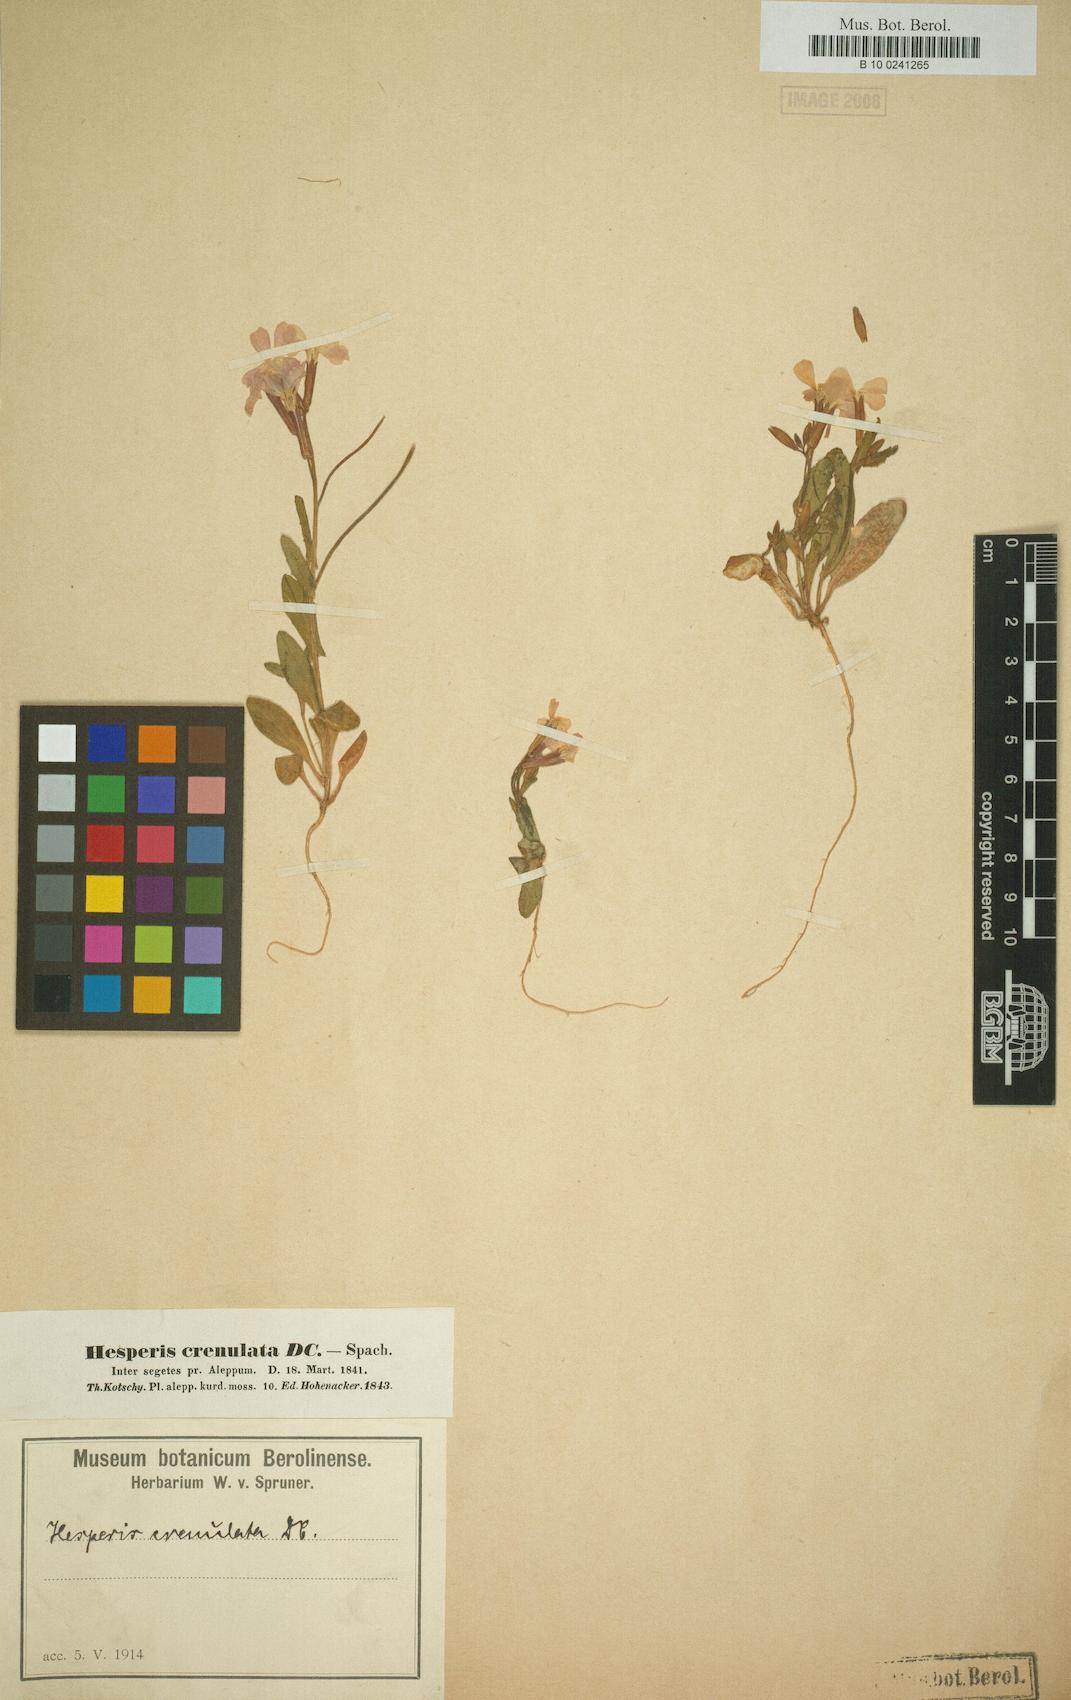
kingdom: Plantae
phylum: Tracheophyta
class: Magnoliopsida
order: Brassicales
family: Brassicaceae
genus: Zuvanda
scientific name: Zuvanda crenulata
